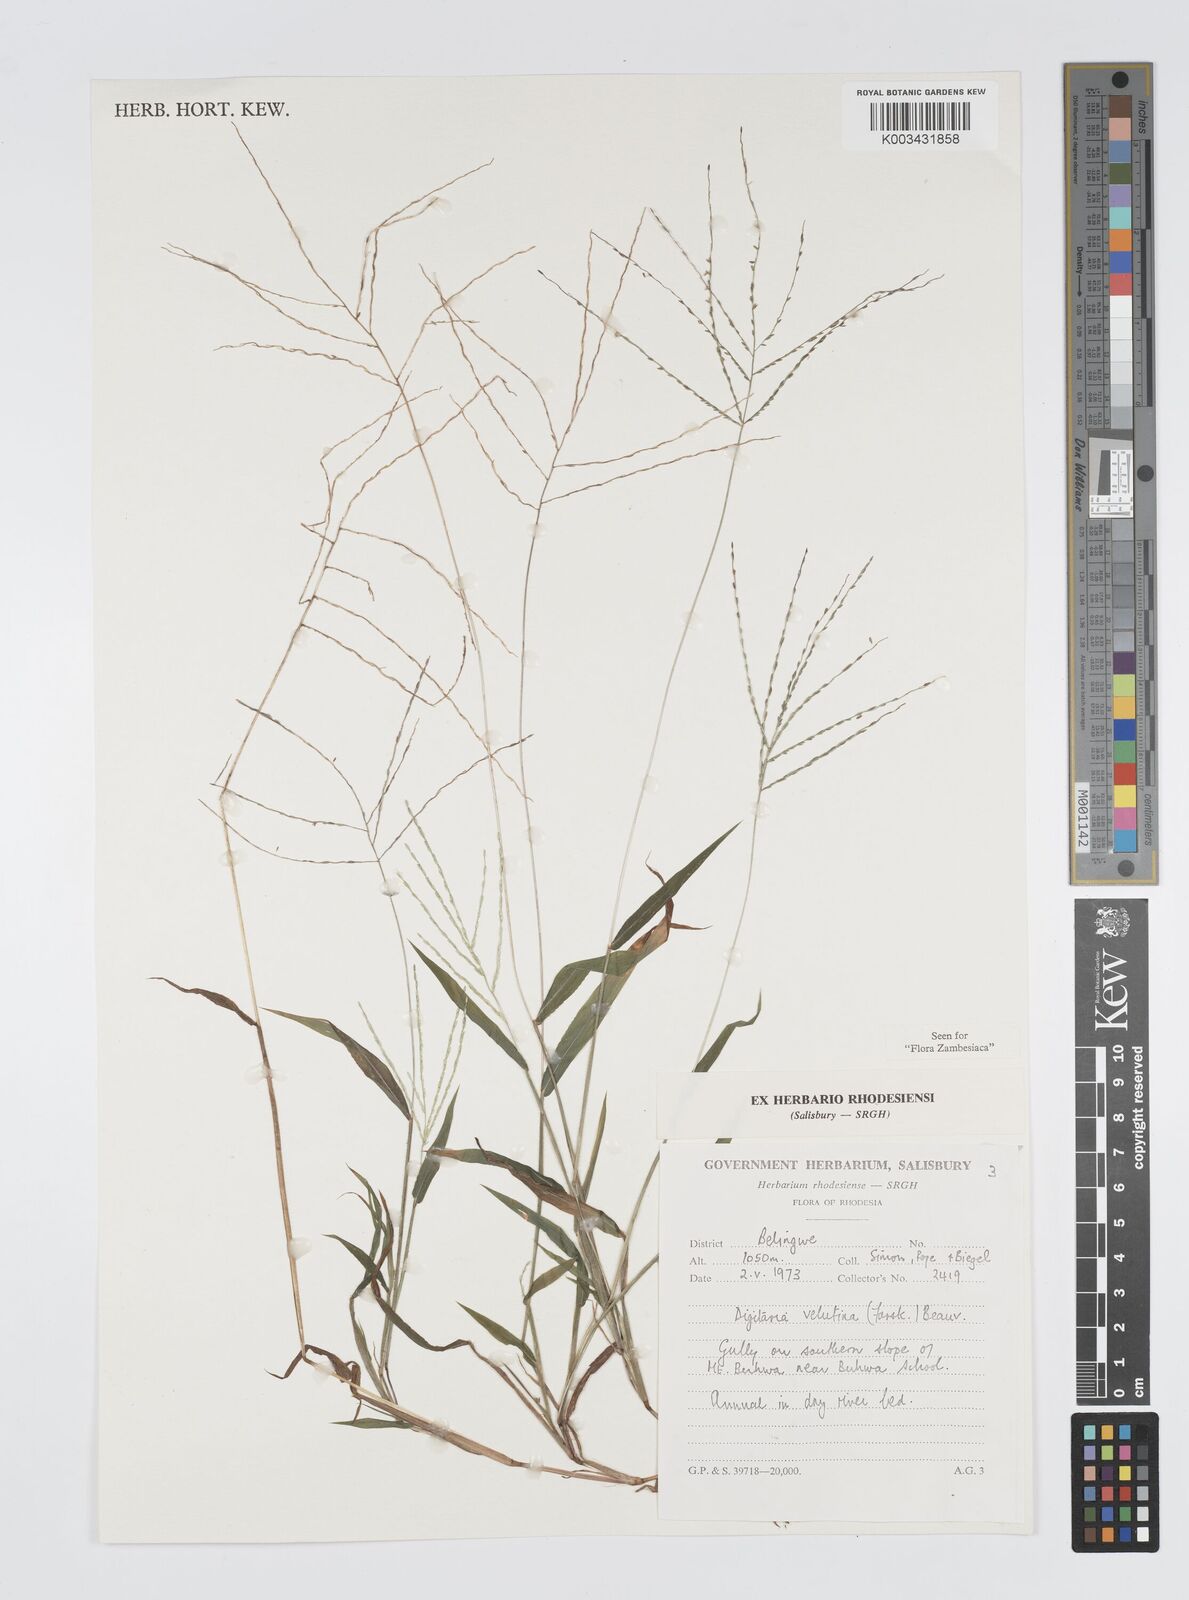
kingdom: Plantae
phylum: Tracheophyta
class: Liliopsida
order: Poales
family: Poaceae
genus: Digitaria
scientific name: Digitaria velutina
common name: Long-plume finger grass
